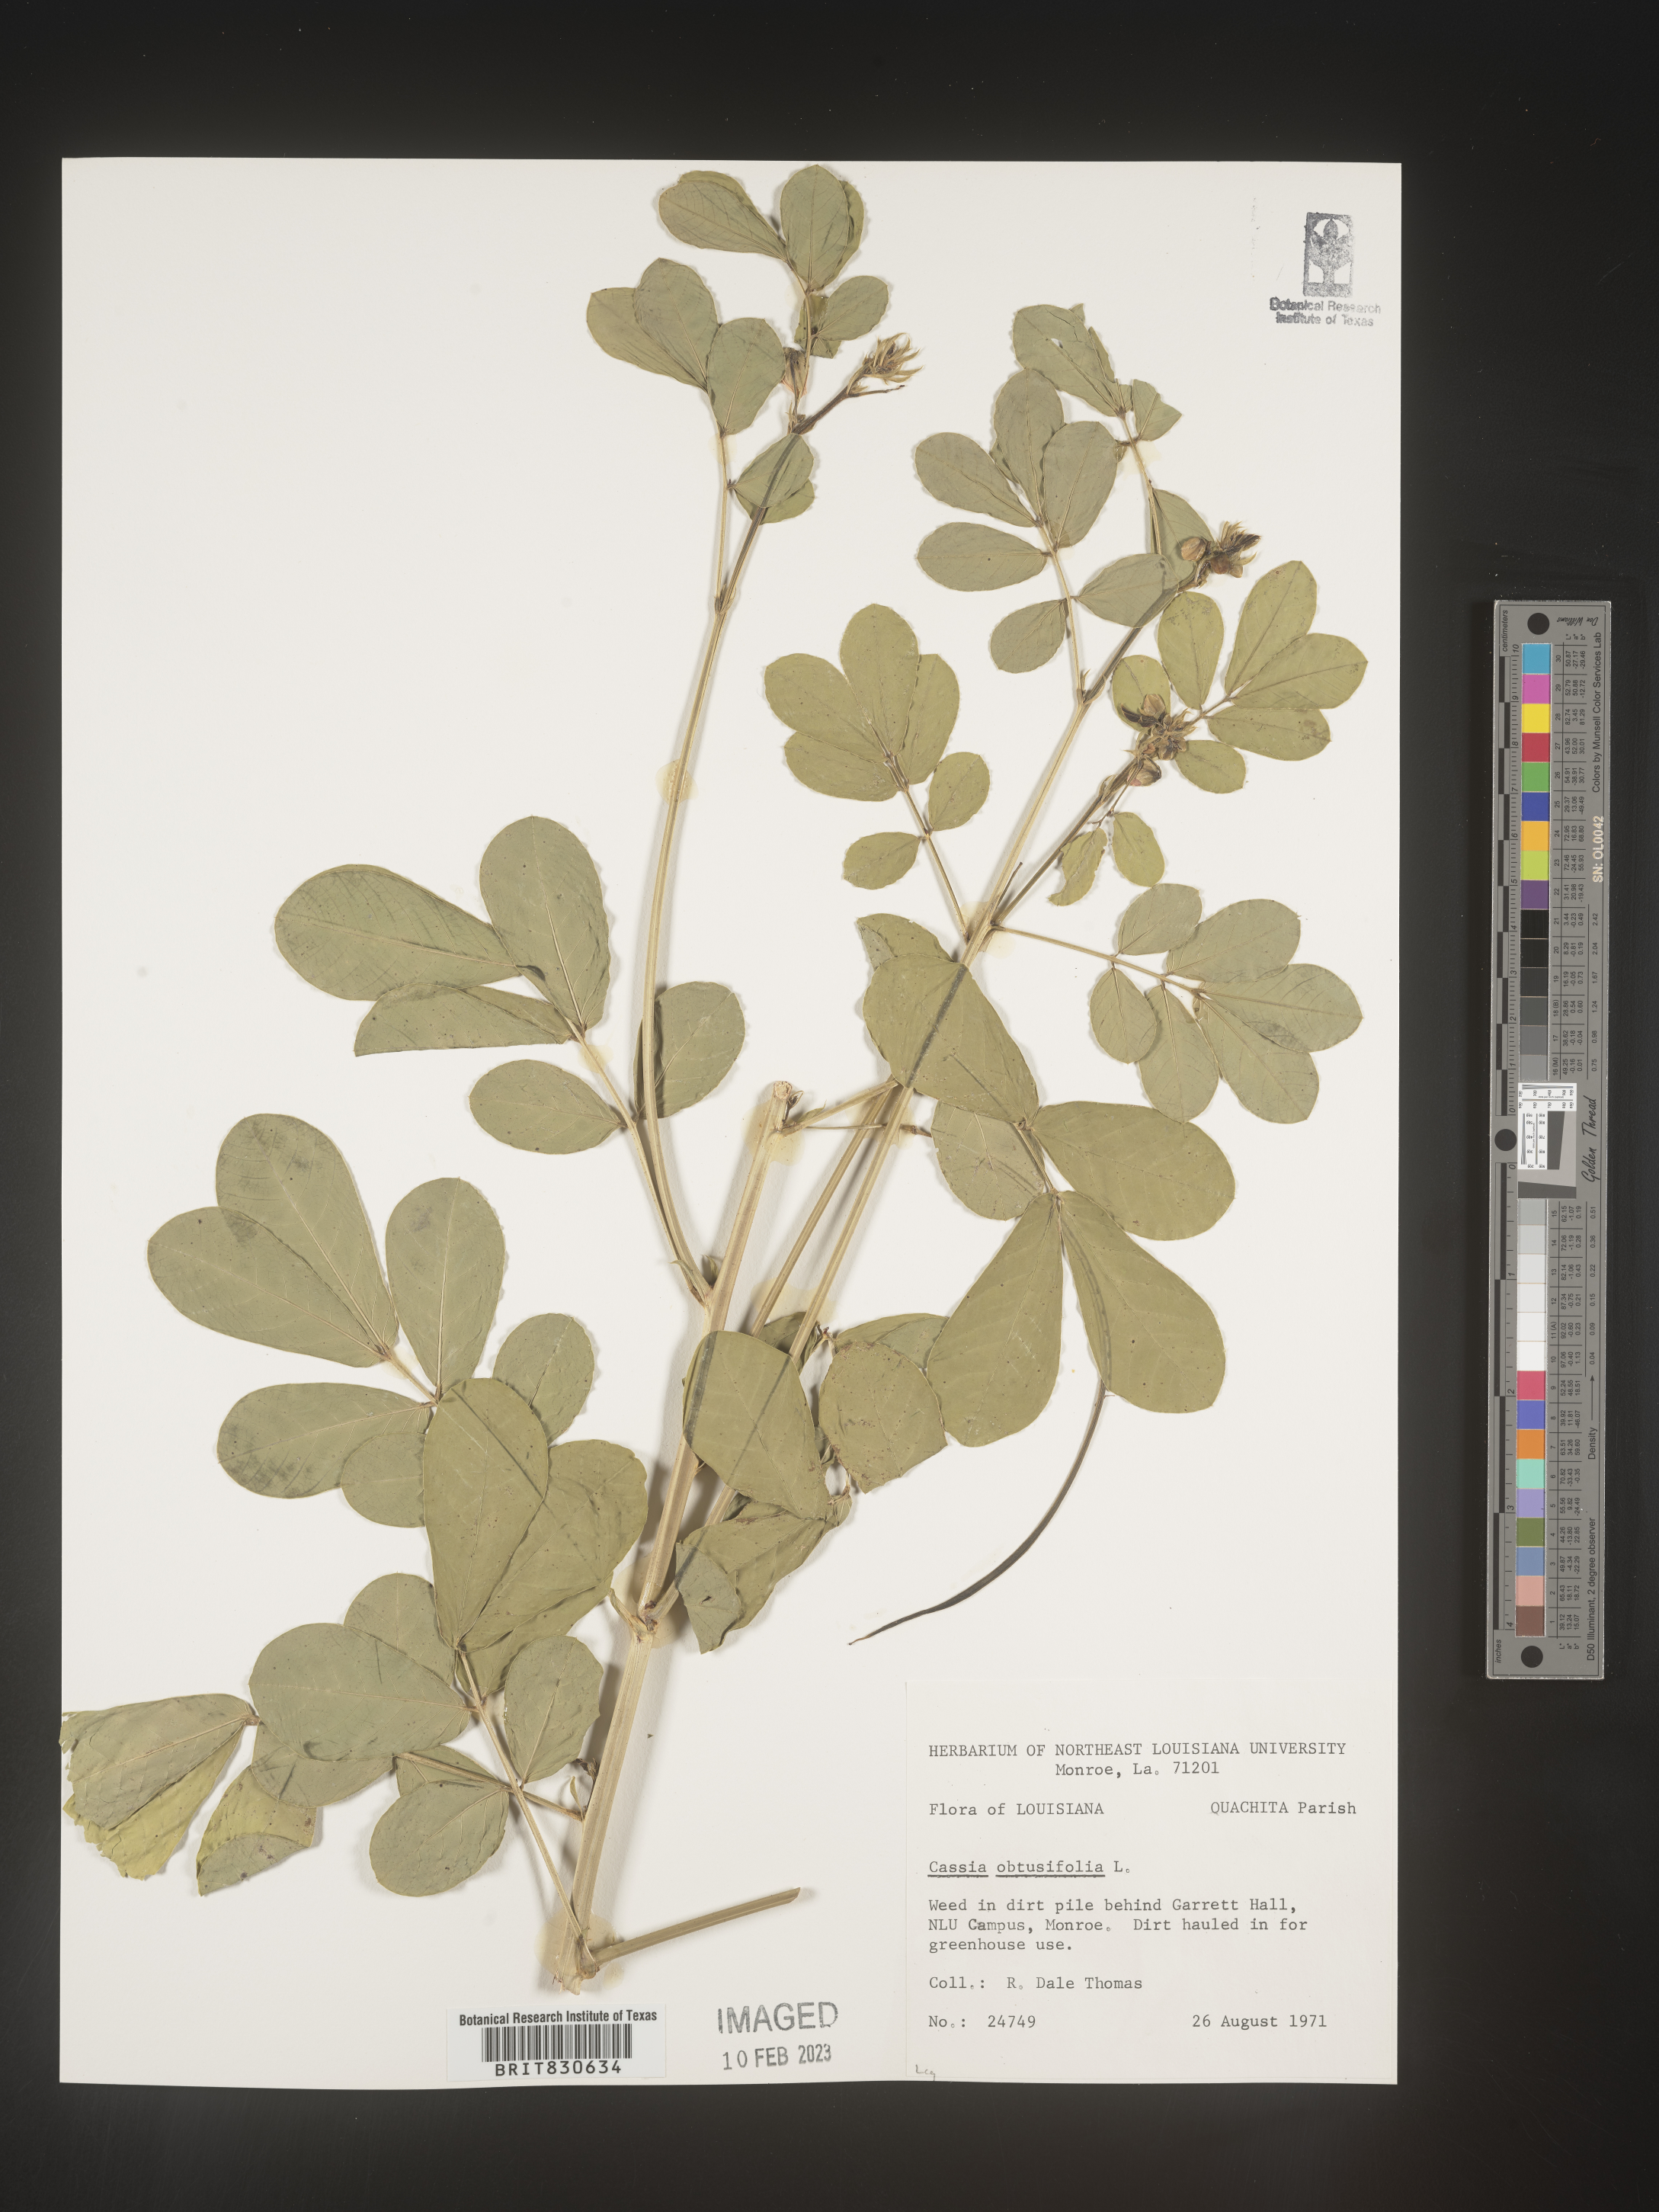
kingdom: Plantae
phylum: Tracheophyta
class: Magnoliopsida
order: Fabales
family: Fabaceae
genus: Senna
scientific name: Senna obtusifolia
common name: Java-bean
